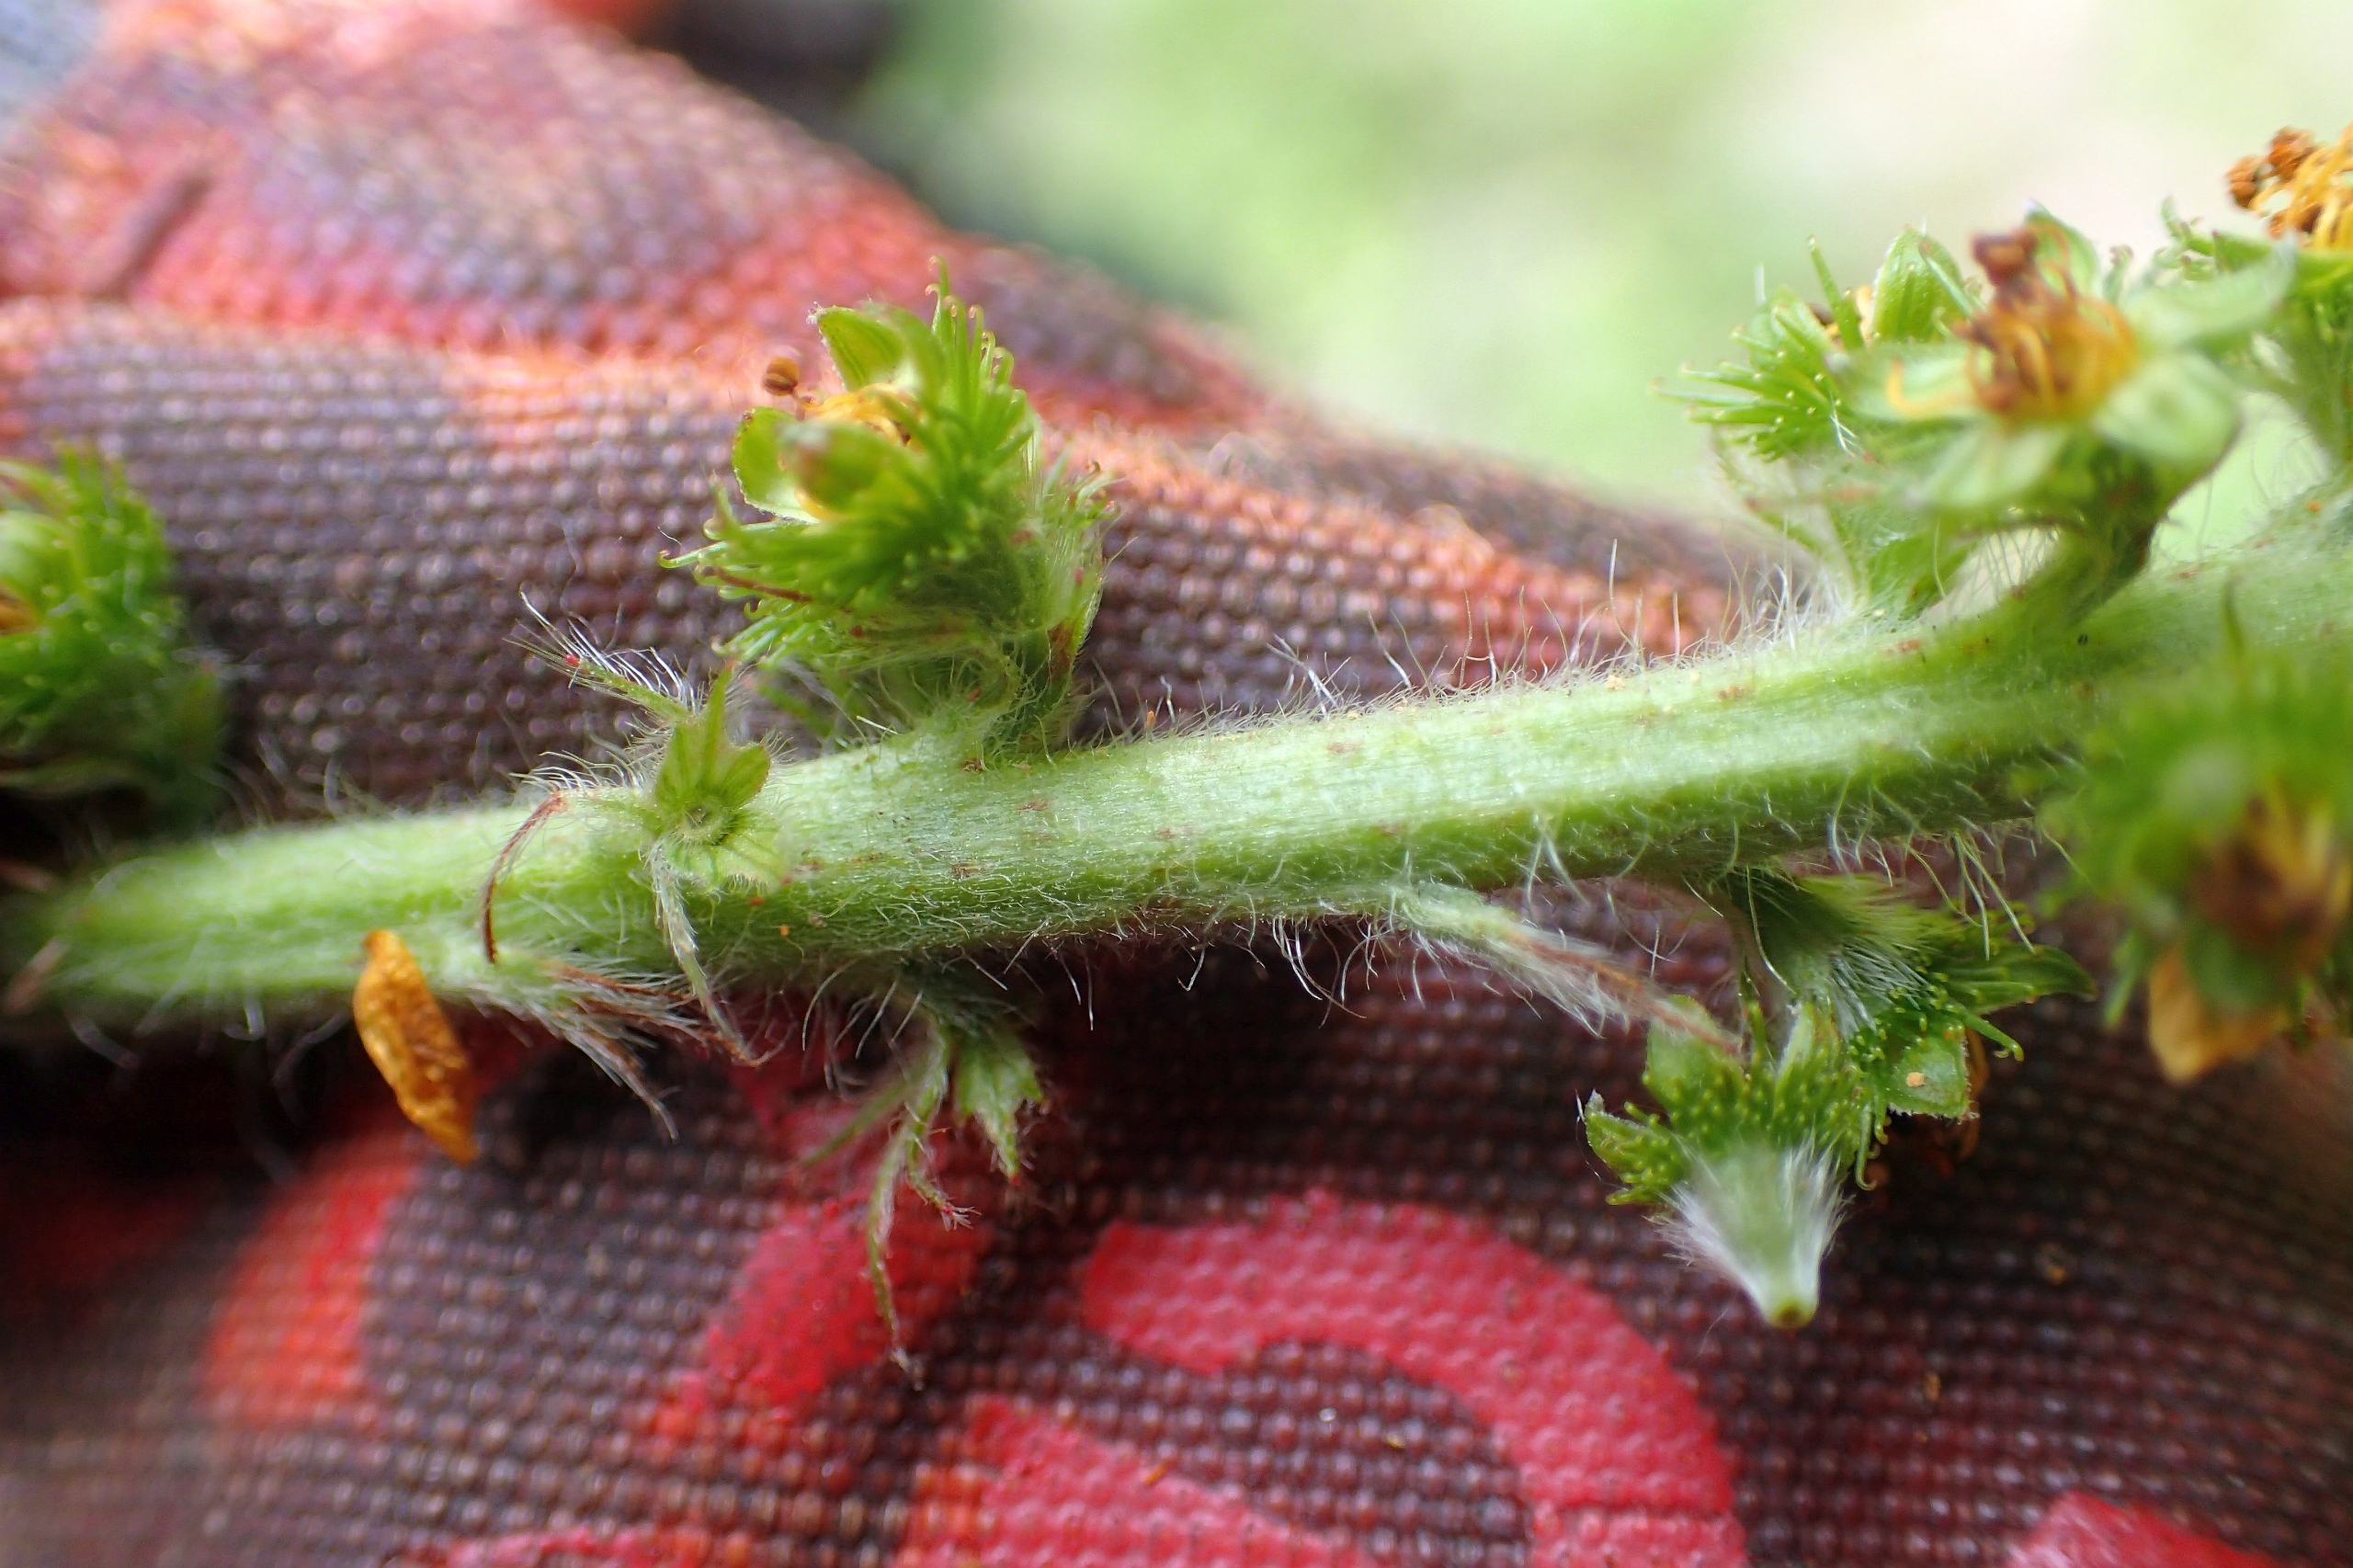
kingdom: Plantae
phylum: Tracheophyta
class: Magnoliopsida
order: Rosales
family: Rosaceae
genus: Agrimonia
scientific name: Agrimonia eupatoria
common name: Almindelig agermåne
